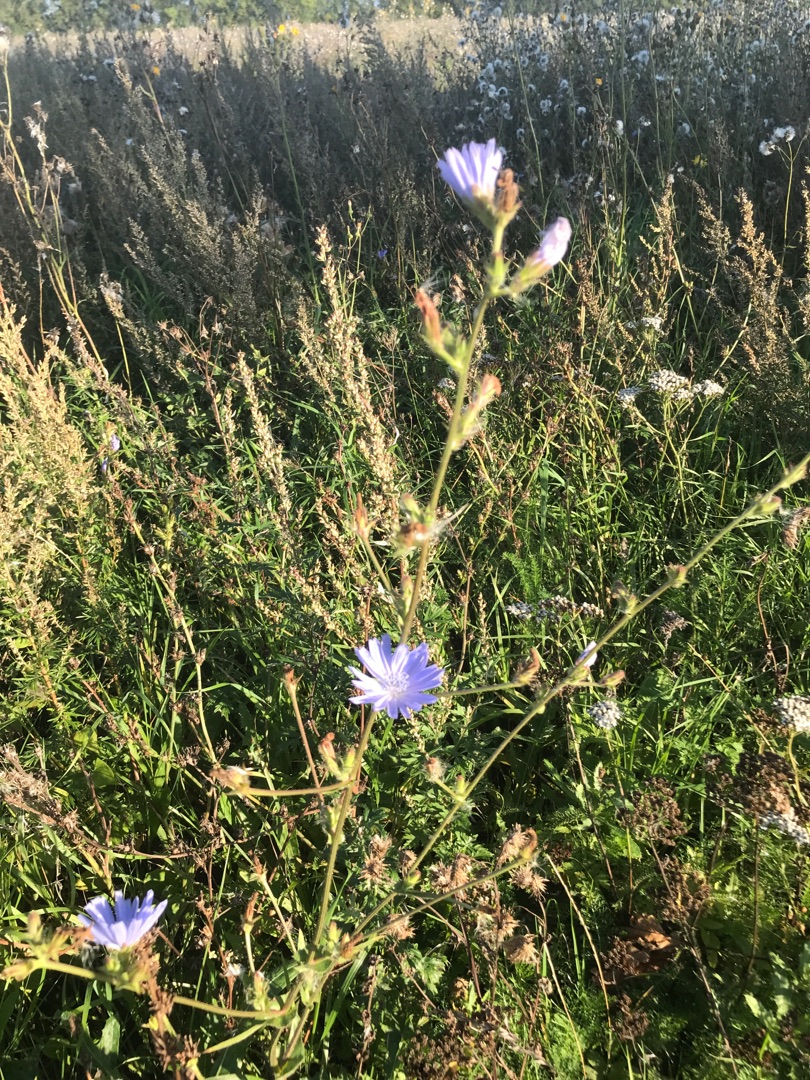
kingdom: Plantae
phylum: Tracheophyta
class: Magnoliopsida
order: Asterales
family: Asteraceae
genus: Cichorium
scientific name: Cichorium intybus
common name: Cikorie
